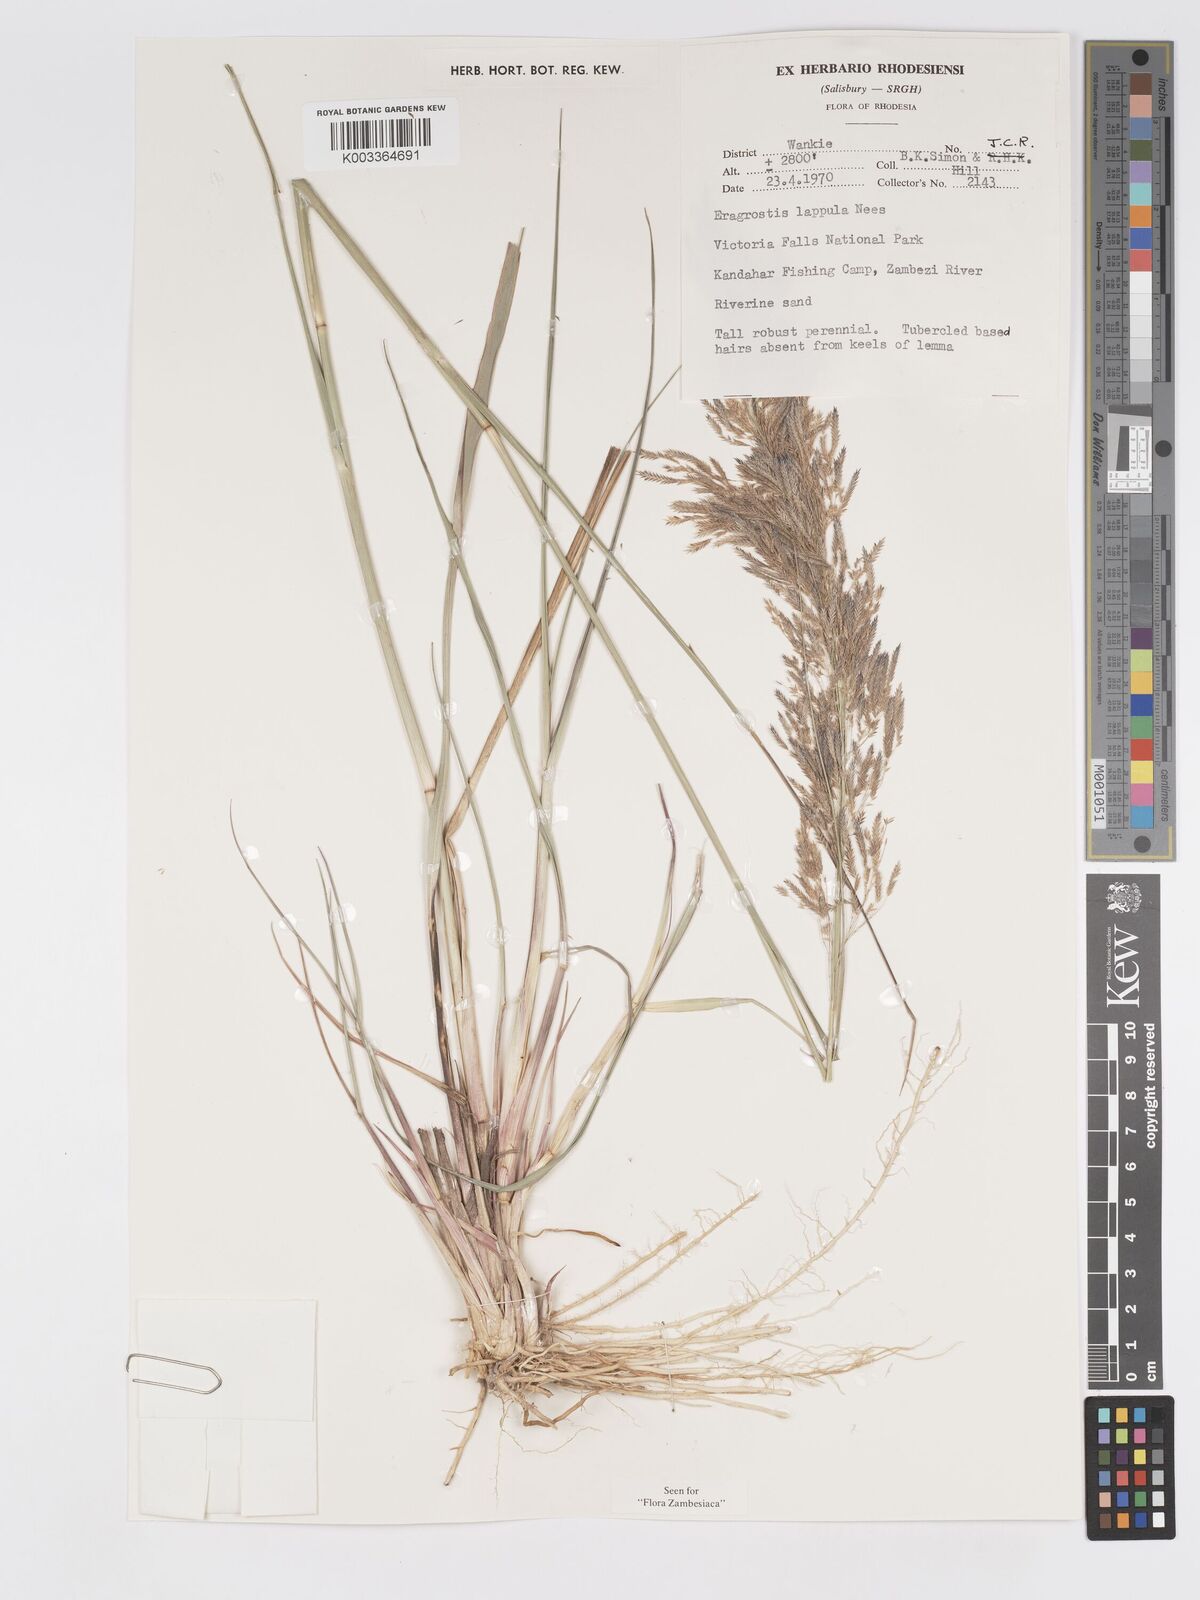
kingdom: Plantae
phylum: Tracheophyta
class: Liliopsida
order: Poales
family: Poaceae
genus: Eragrostis
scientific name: Eragrostis lappula
